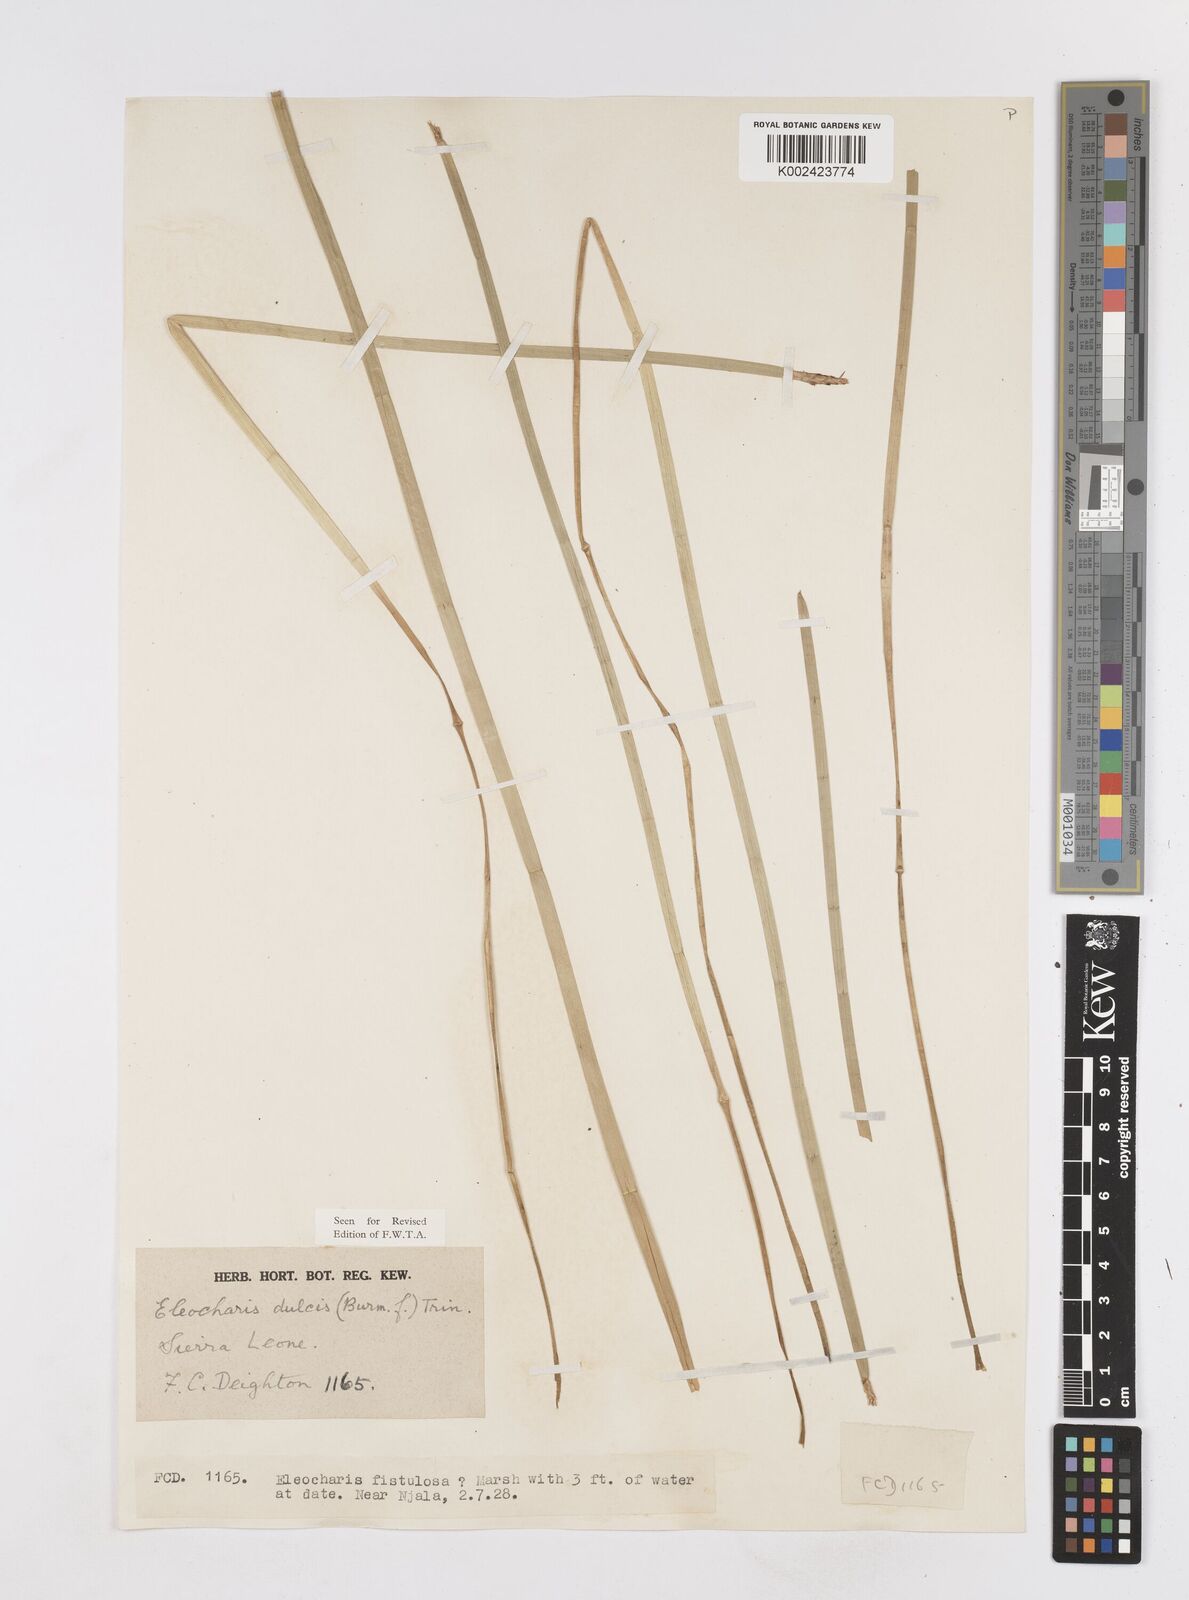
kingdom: Plantae
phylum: Tracheophyta
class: Liliopsida
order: Poales
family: Cyperaceae
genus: Eleocharis
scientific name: Eleocharis dulcis
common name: Chinese water chestnut
